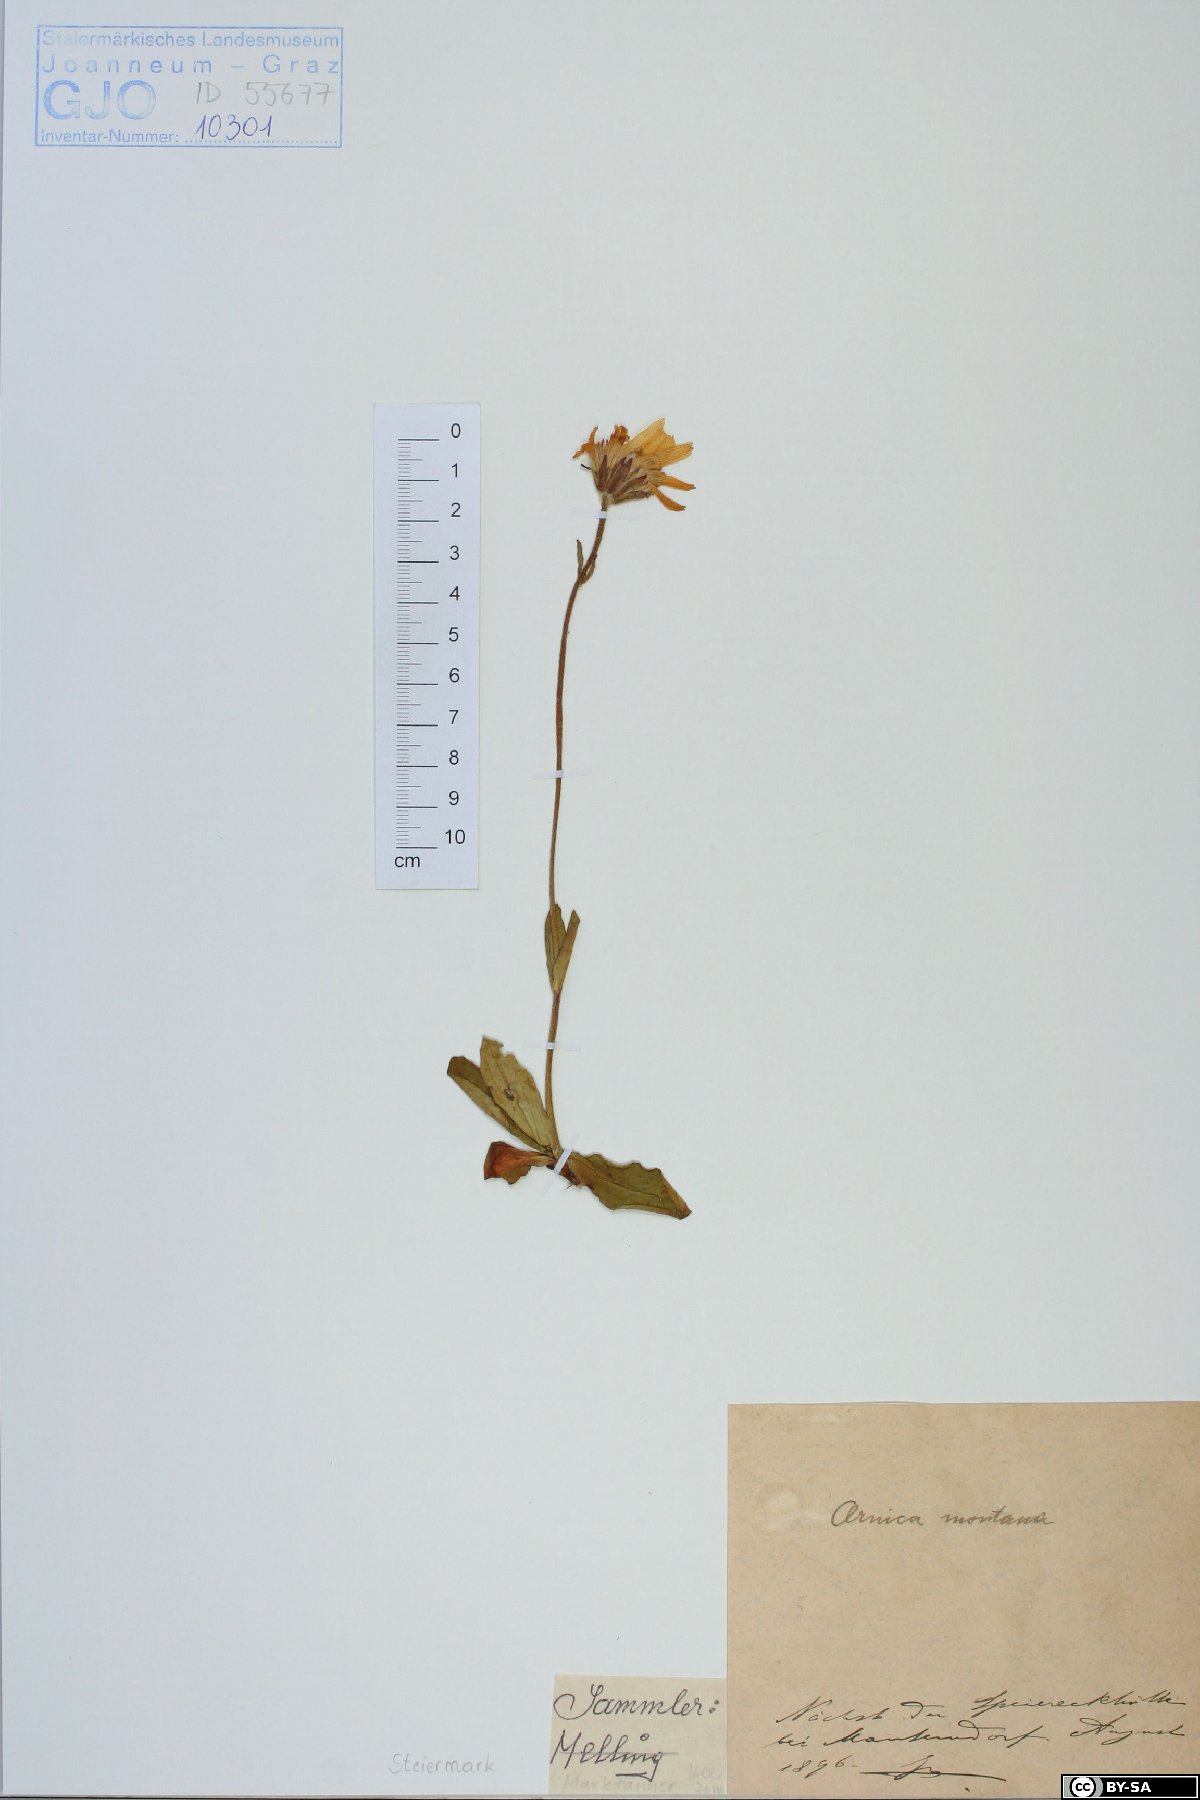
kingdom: Plantae
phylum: Tracheophyta
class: Magnoliopsida
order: Asterales
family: Asteraceae
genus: Arnica
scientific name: Arnica montana
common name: Leopard's bane
